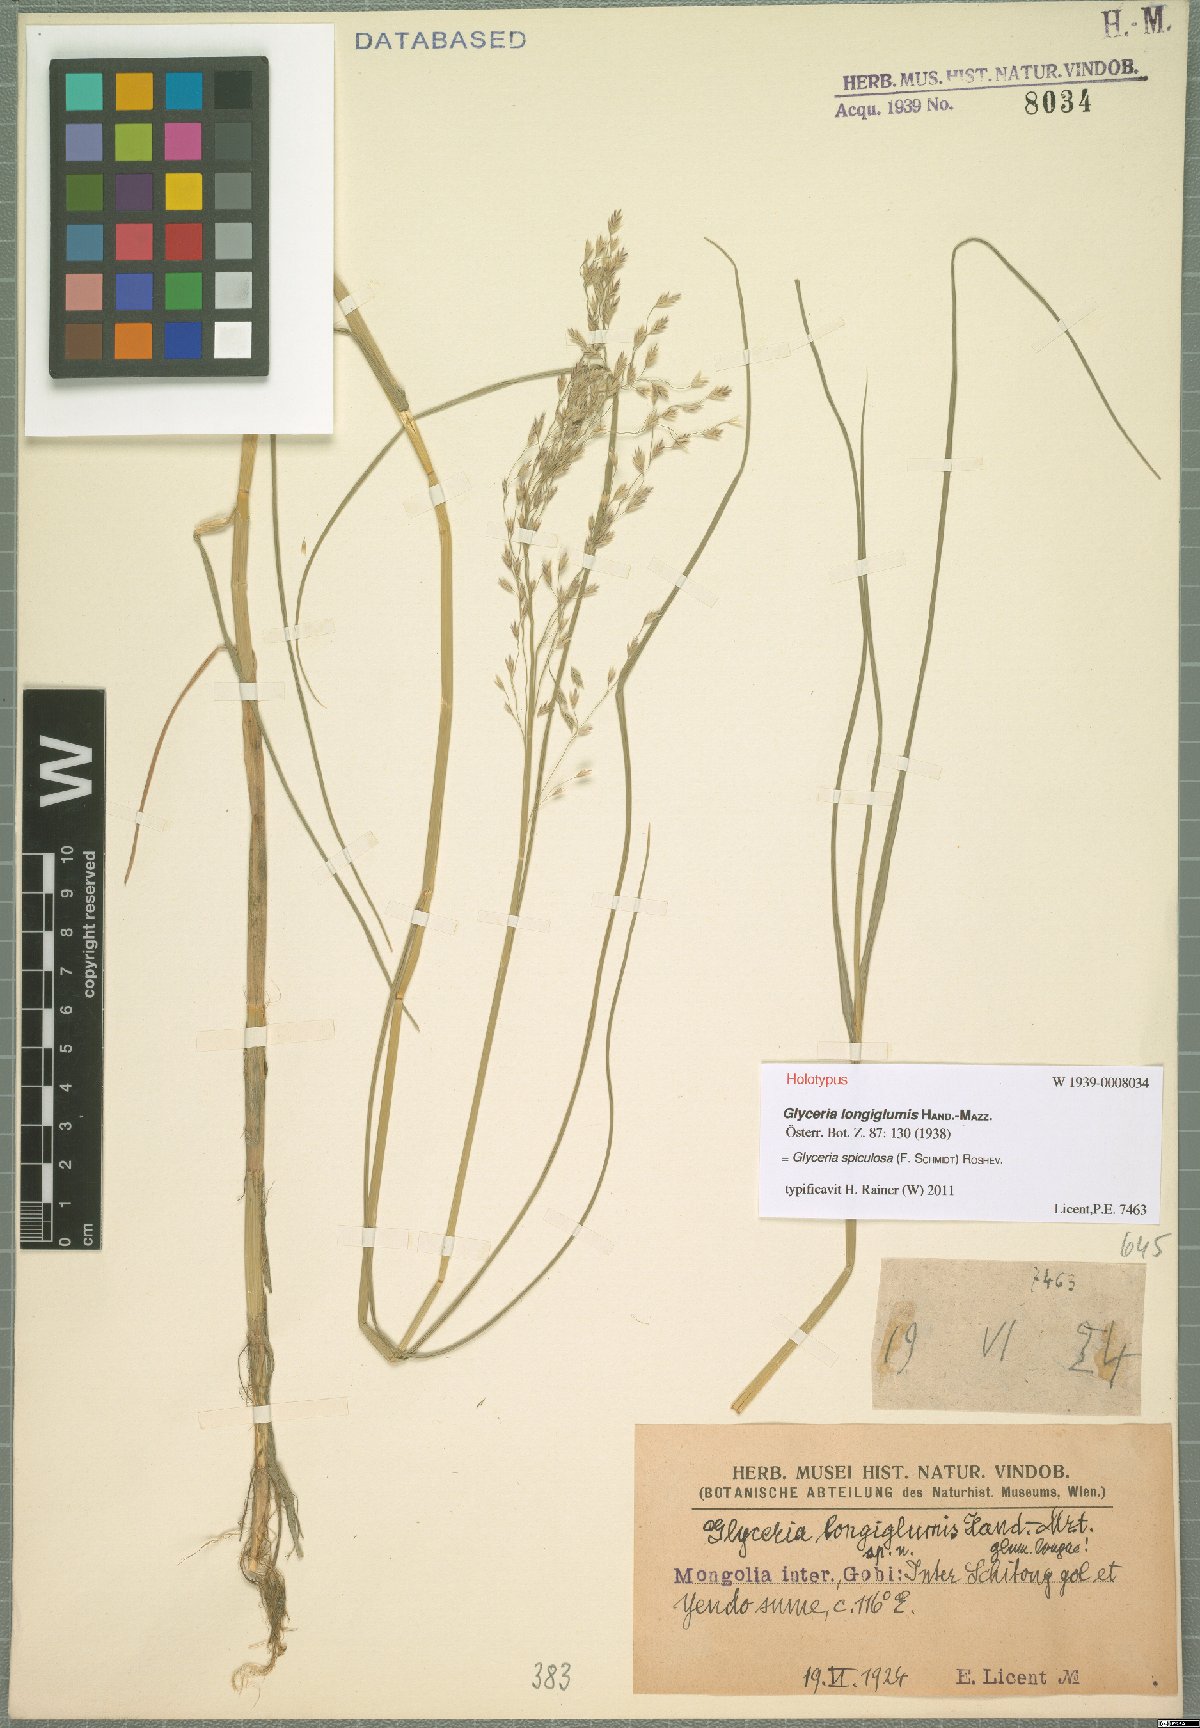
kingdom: Plantae
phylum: Tracheophyta
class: Liliopsida
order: Poales
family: Poaceae
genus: Glyceria
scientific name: Glyceria spiculosa
